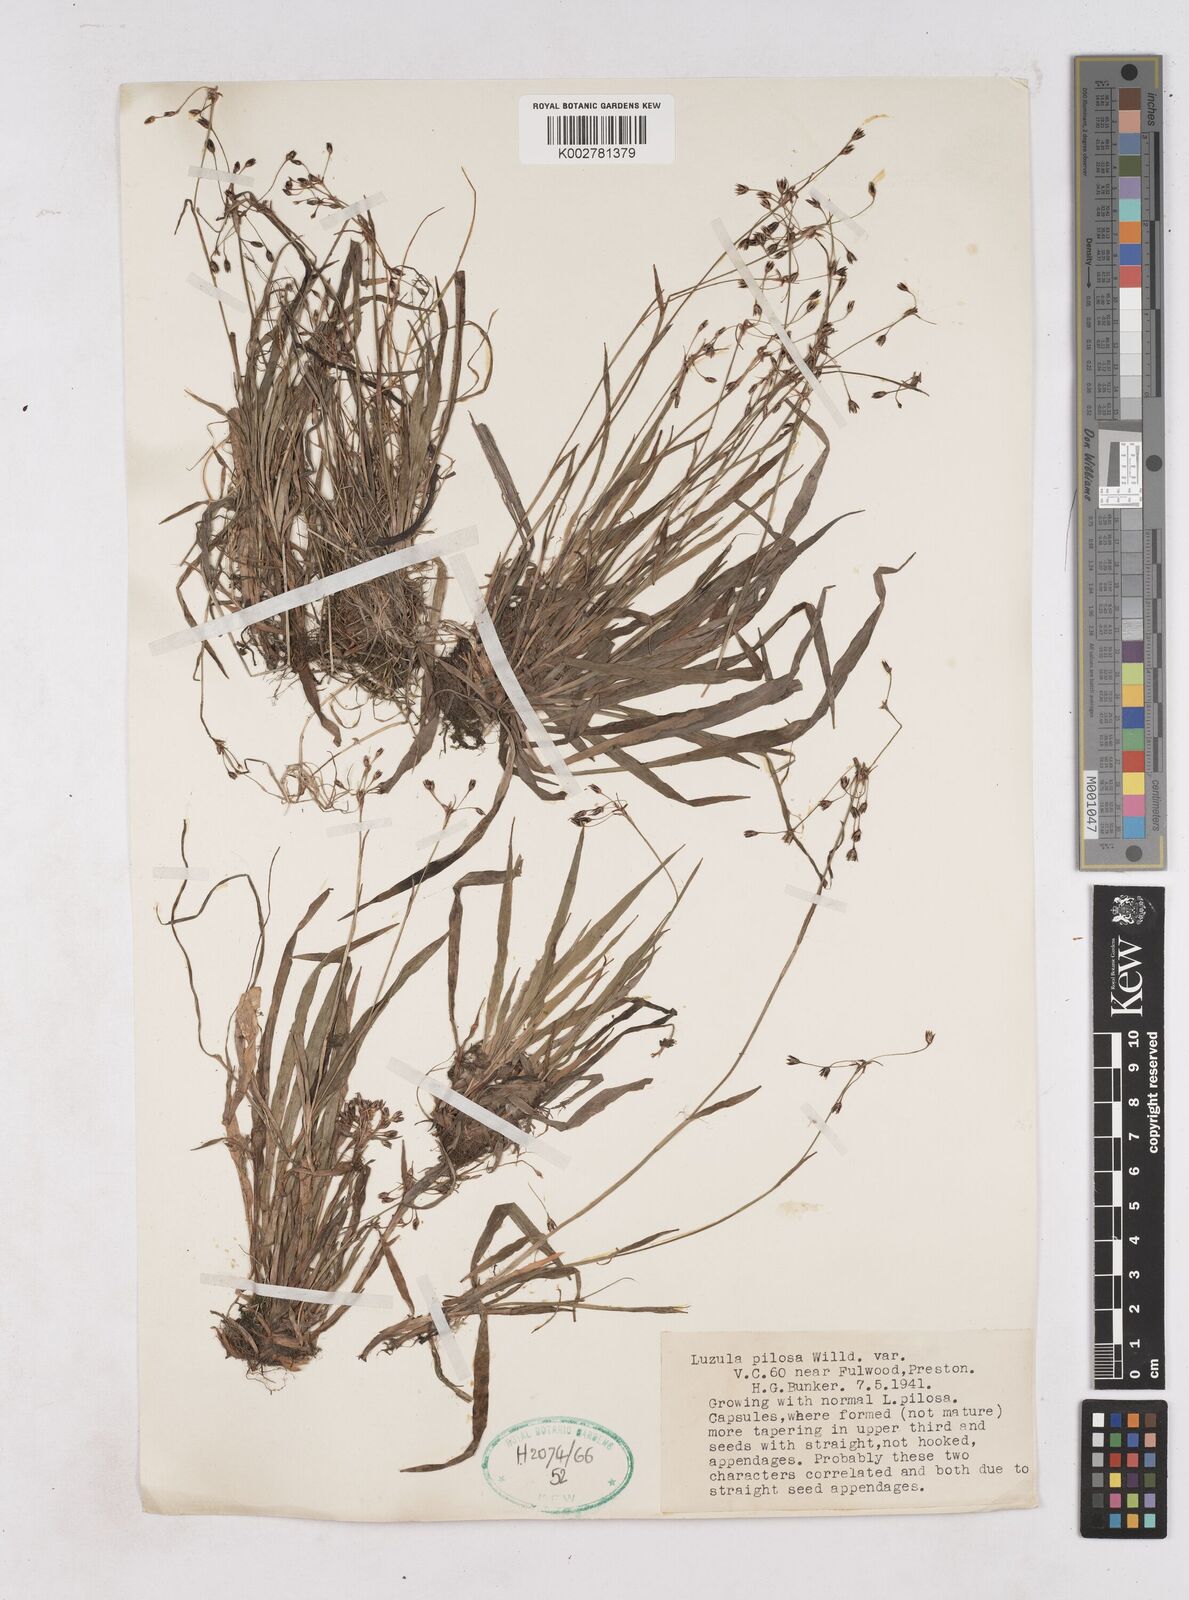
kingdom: Plantae
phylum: Tracheophyta
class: Liliopsida
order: Poales
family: Juncaceae
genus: Luzula
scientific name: Luzula pilosa
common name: Hairy wood-rush
